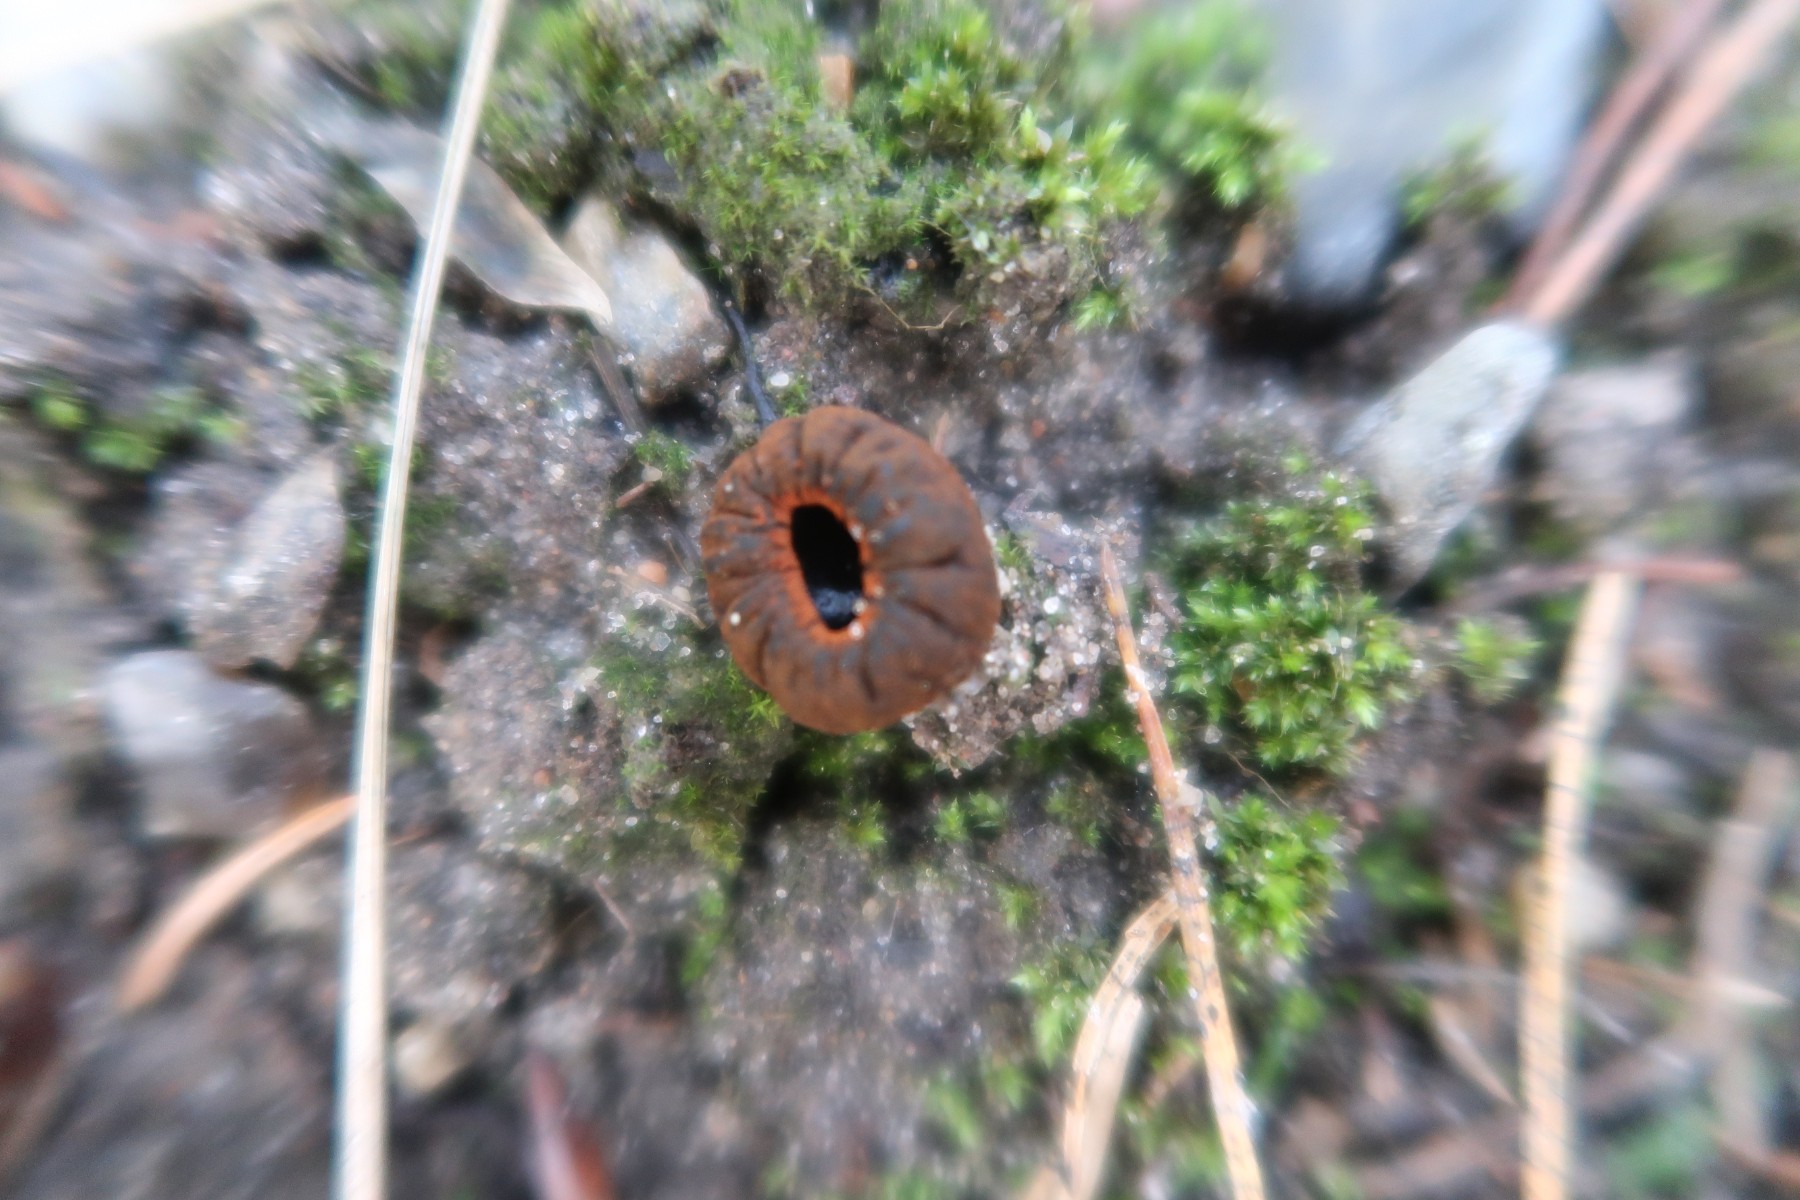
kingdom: Fungi
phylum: Ascomycota
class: Pezizomycetes
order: Pezizales
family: Sarcosomataceae
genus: Plectania
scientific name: Plectania melastoma
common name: rustbæger
